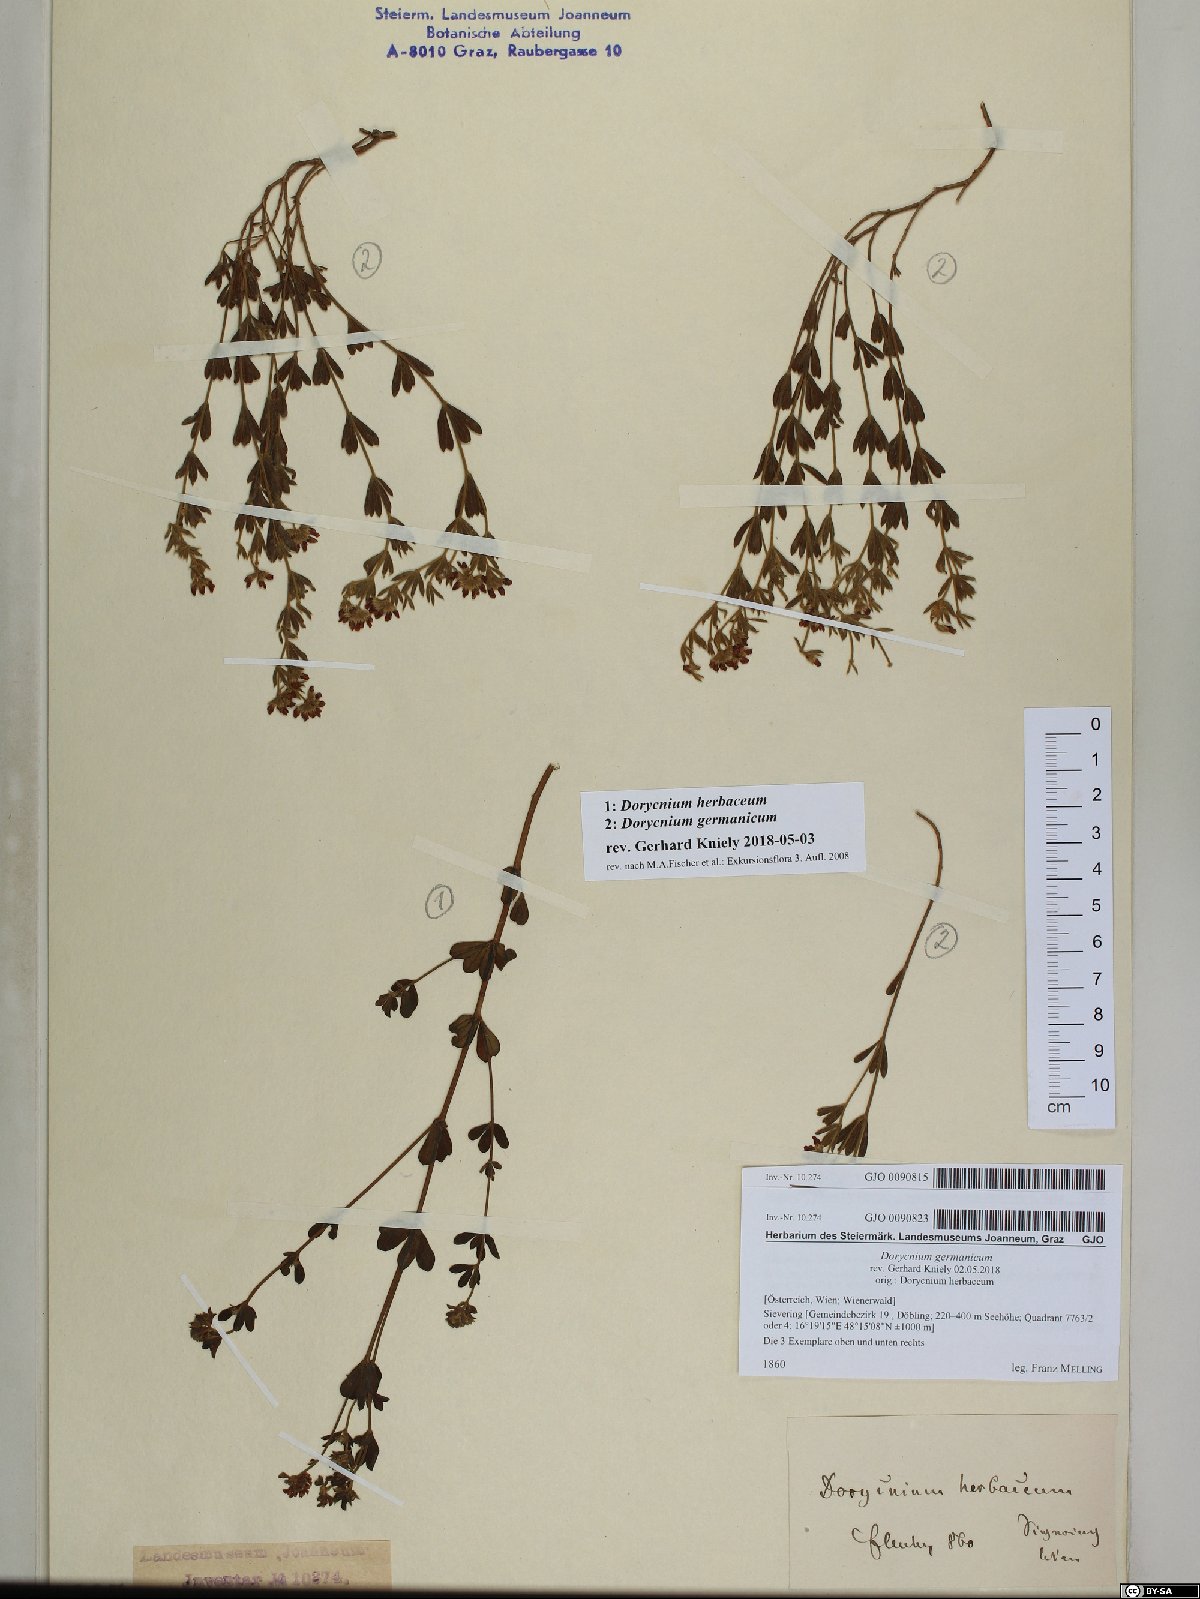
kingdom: Plantae
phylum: Tracheophyta
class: Magnoliopsida
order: Fabales
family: Fabaceae
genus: Lotus
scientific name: Lotus herbaceus
